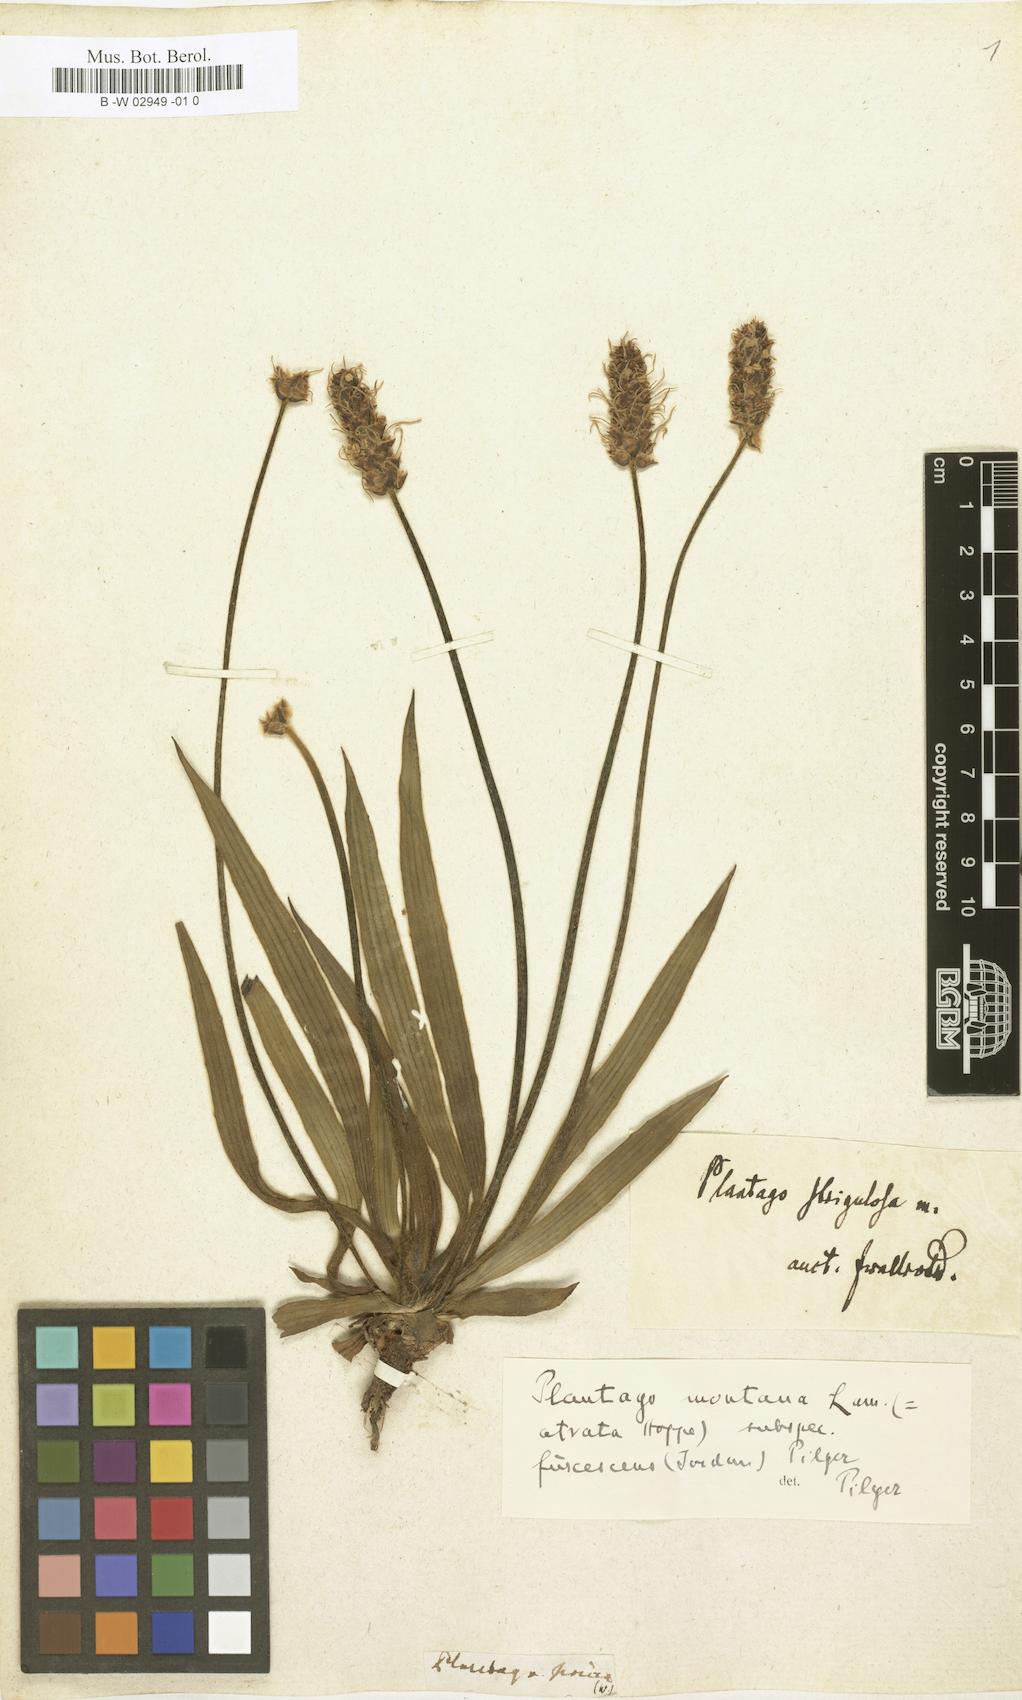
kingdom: Plantae
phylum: Tracheophyta
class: Magnoliopsida
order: Lamiales
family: Plantaginaceae
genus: Plantago
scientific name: Plantago sericea
